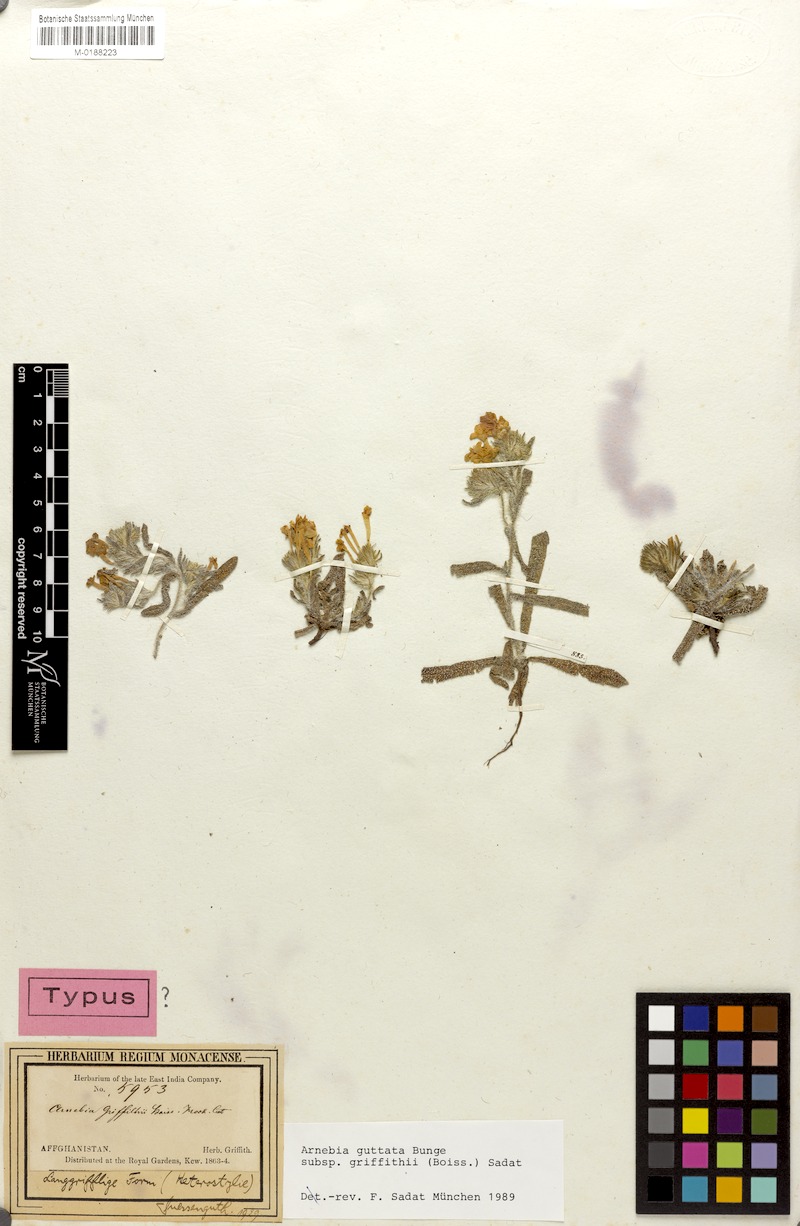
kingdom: Plantae
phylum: Tracheophyta
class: Magnoliopsida
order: Boraginales
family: Boraginaceae
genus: Arnebia
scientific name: Arnebia guttata
